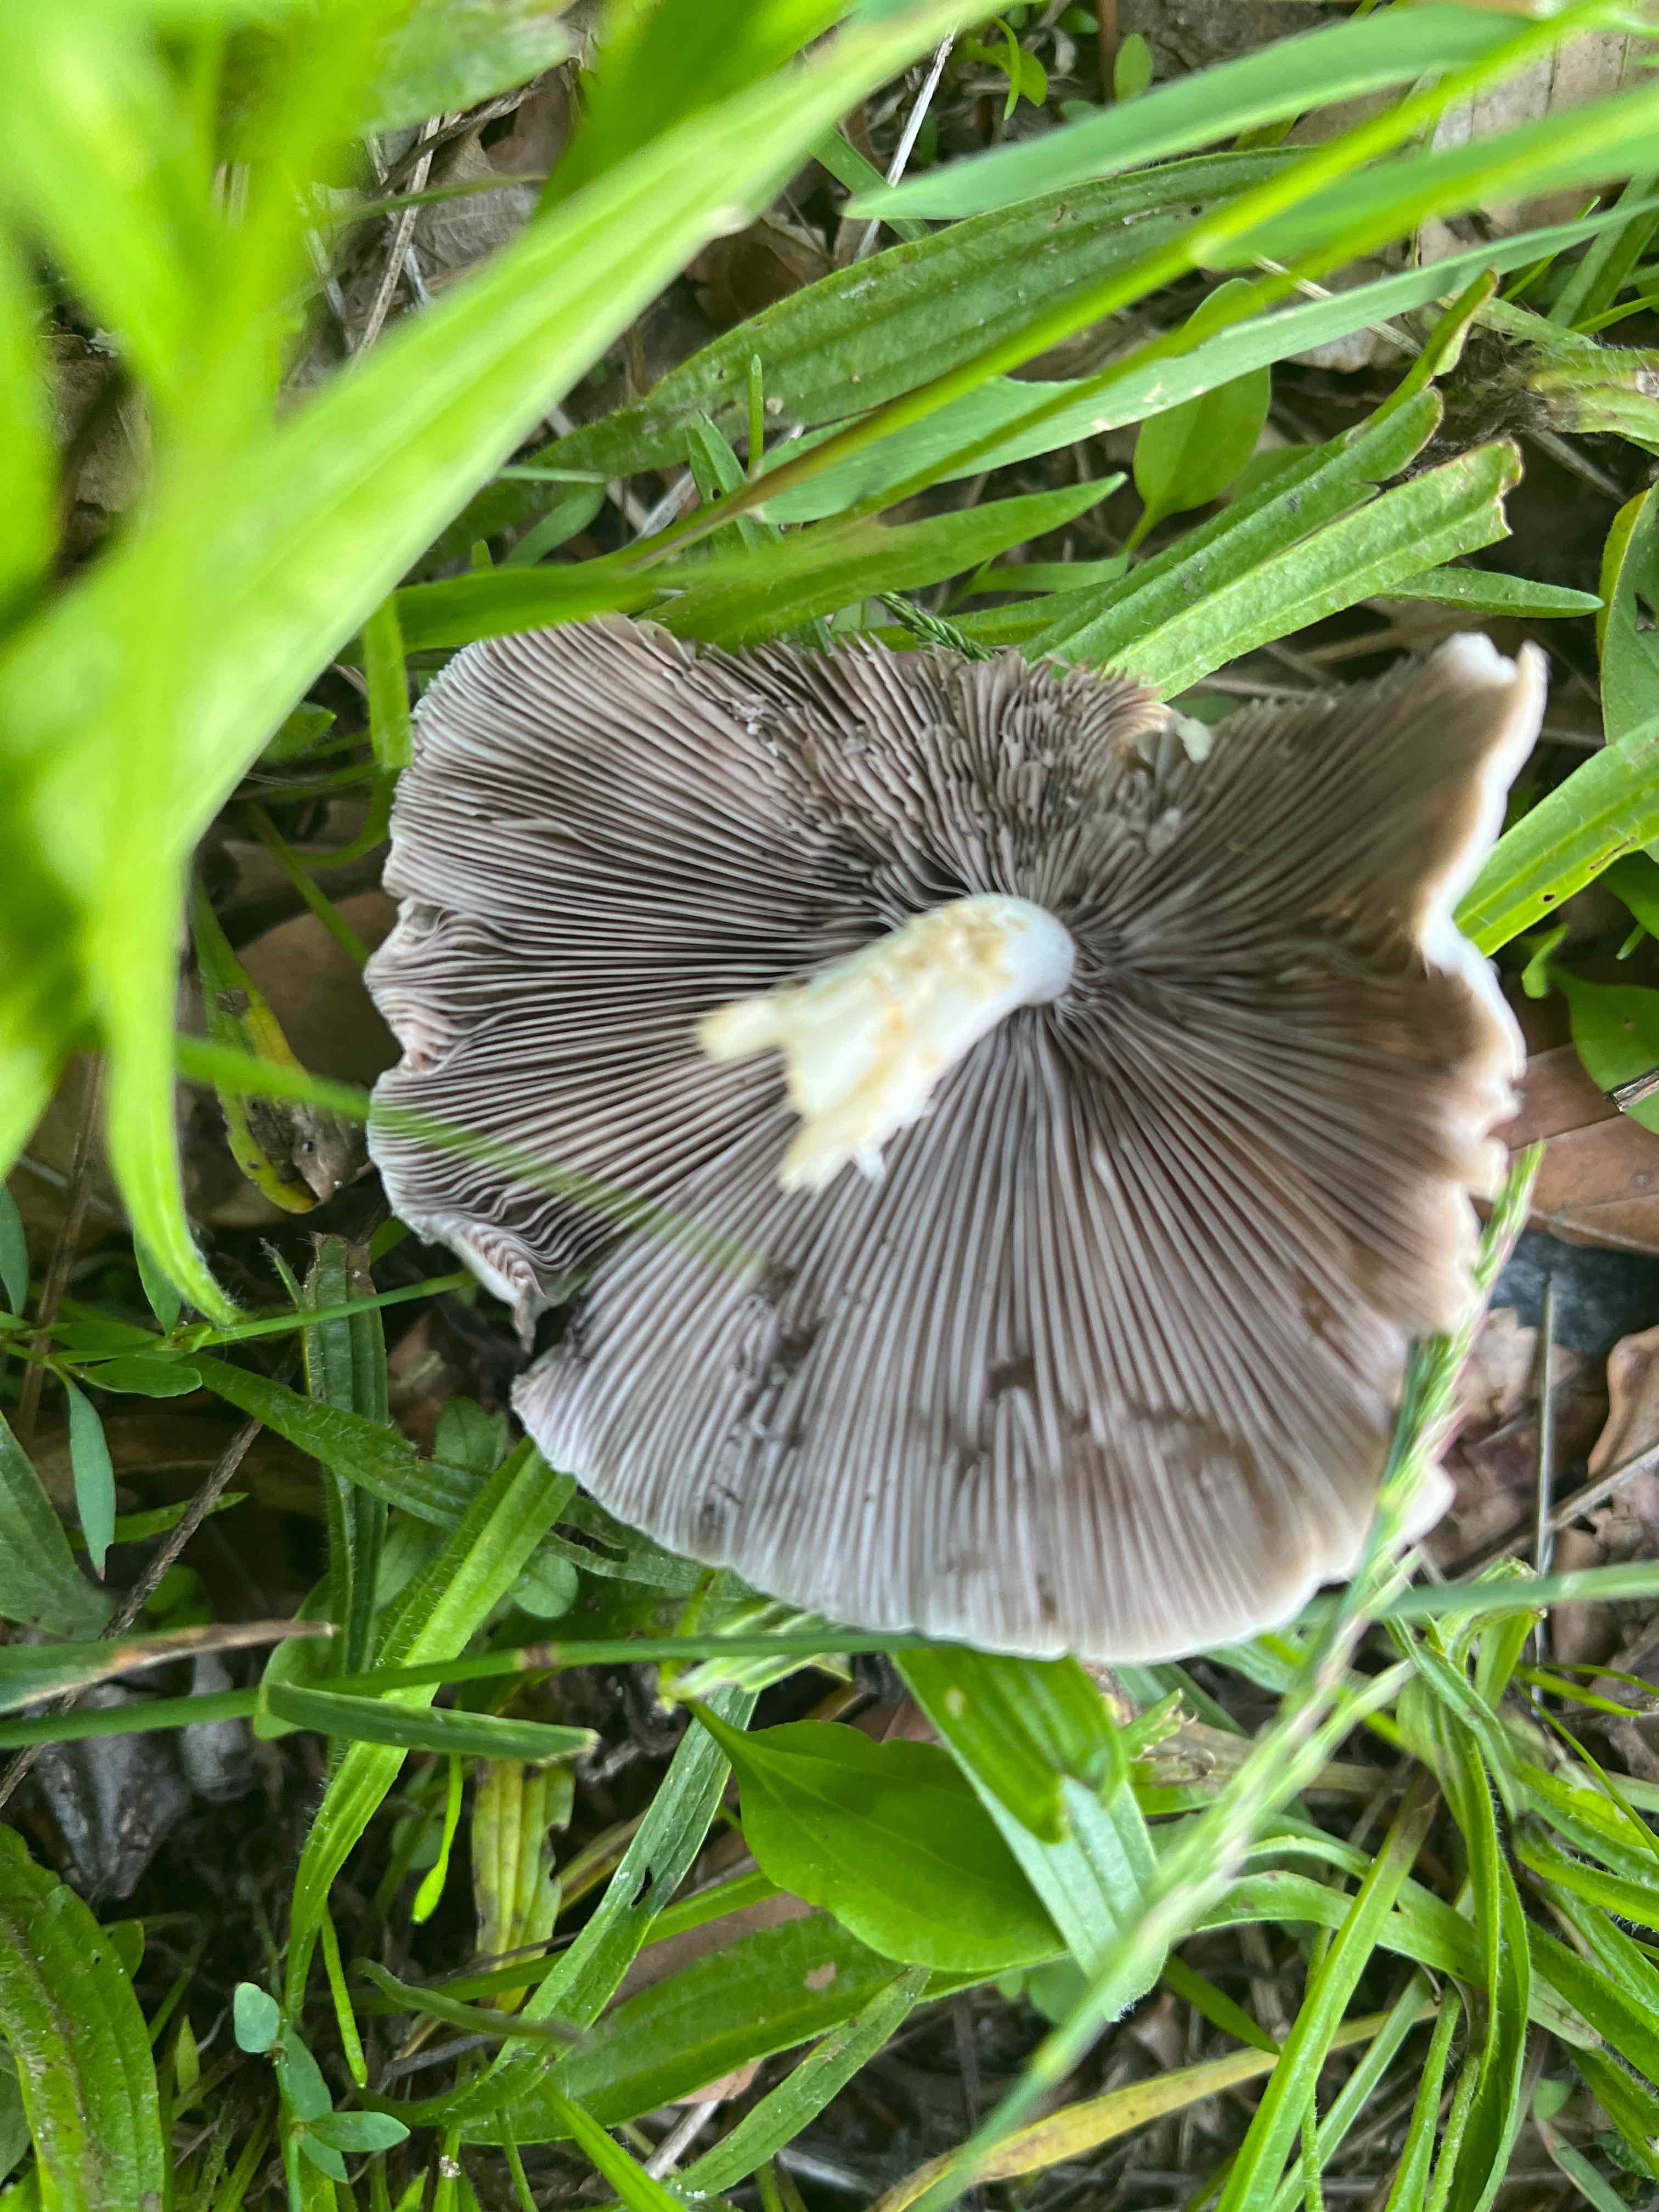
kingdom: Fungi
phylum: Basidiomycota
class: Agaricomycetes
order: Agaricales
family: Psathyrellaceae
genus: Candolleomyces
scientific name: Candolleomyces candolleanus
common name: Candolles mørkhat
